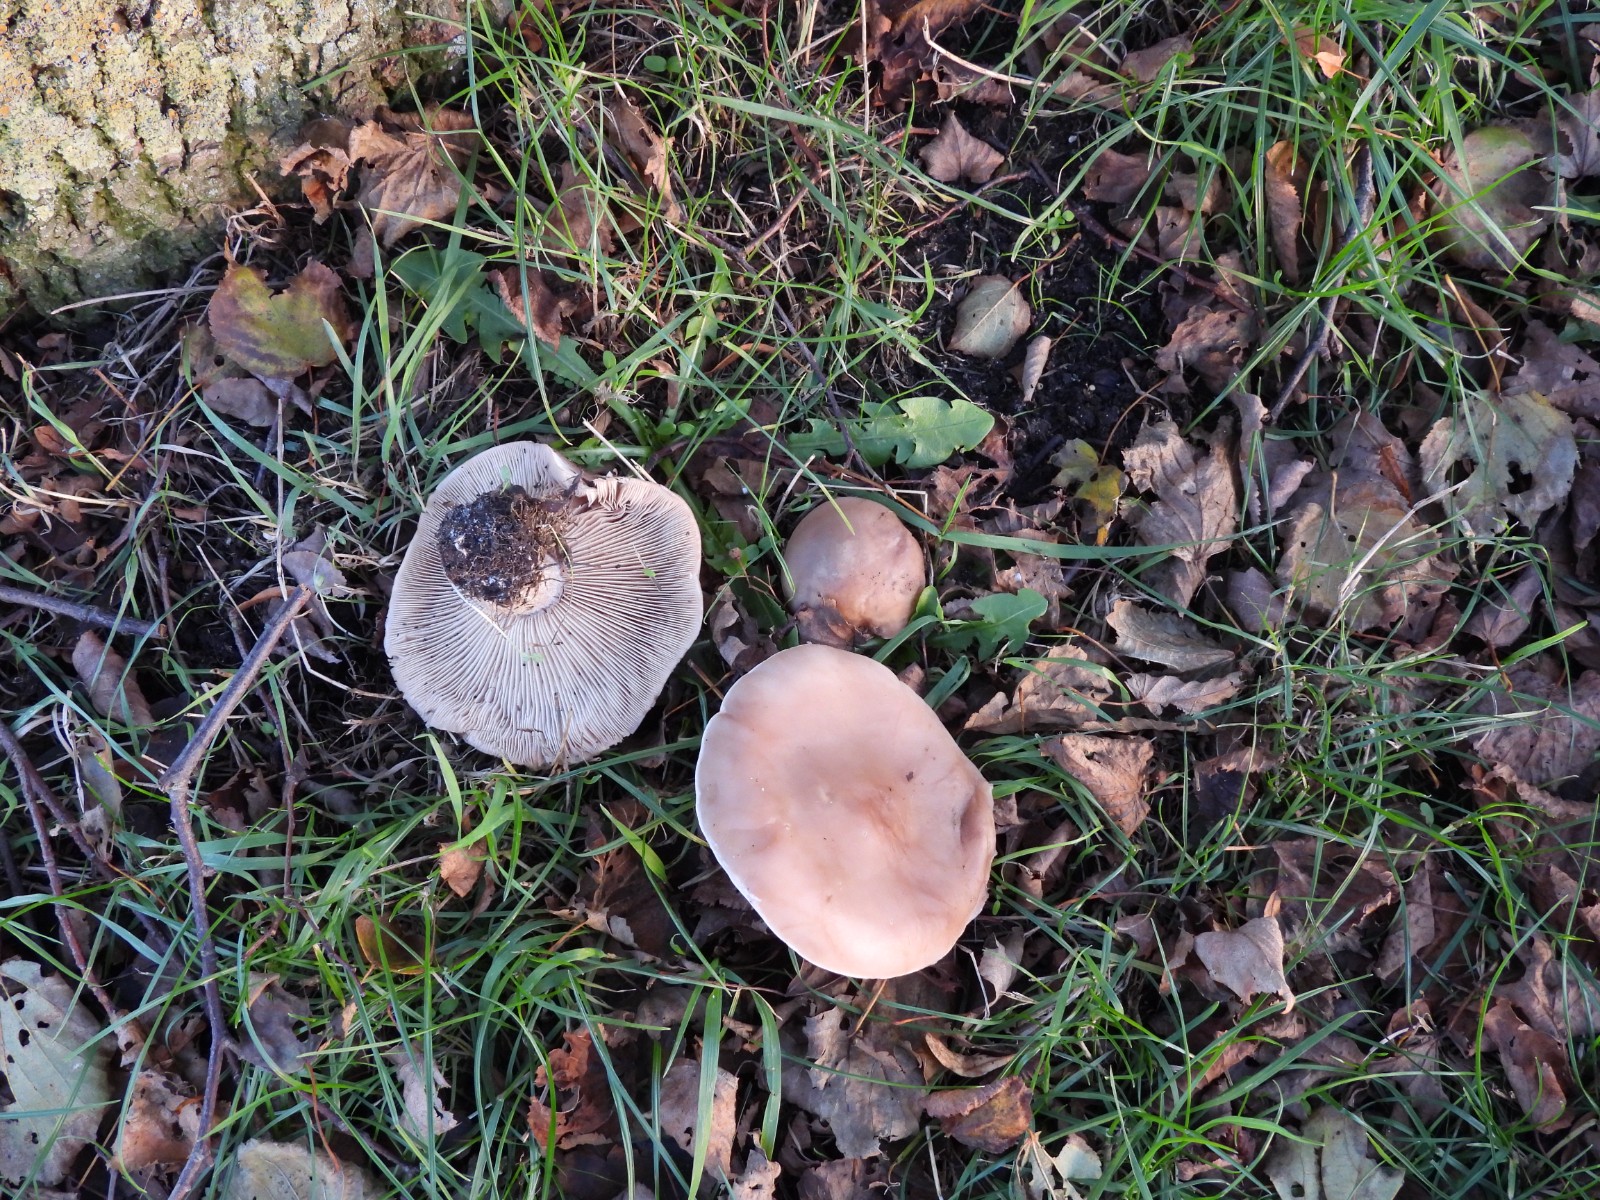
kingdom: Fungi
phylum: Basidiomycota
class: Agaricomycetes
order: Agaricales
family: Tricholomataceae
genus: Lepista
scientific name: Lepista personata
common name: bleg hekseringshat
